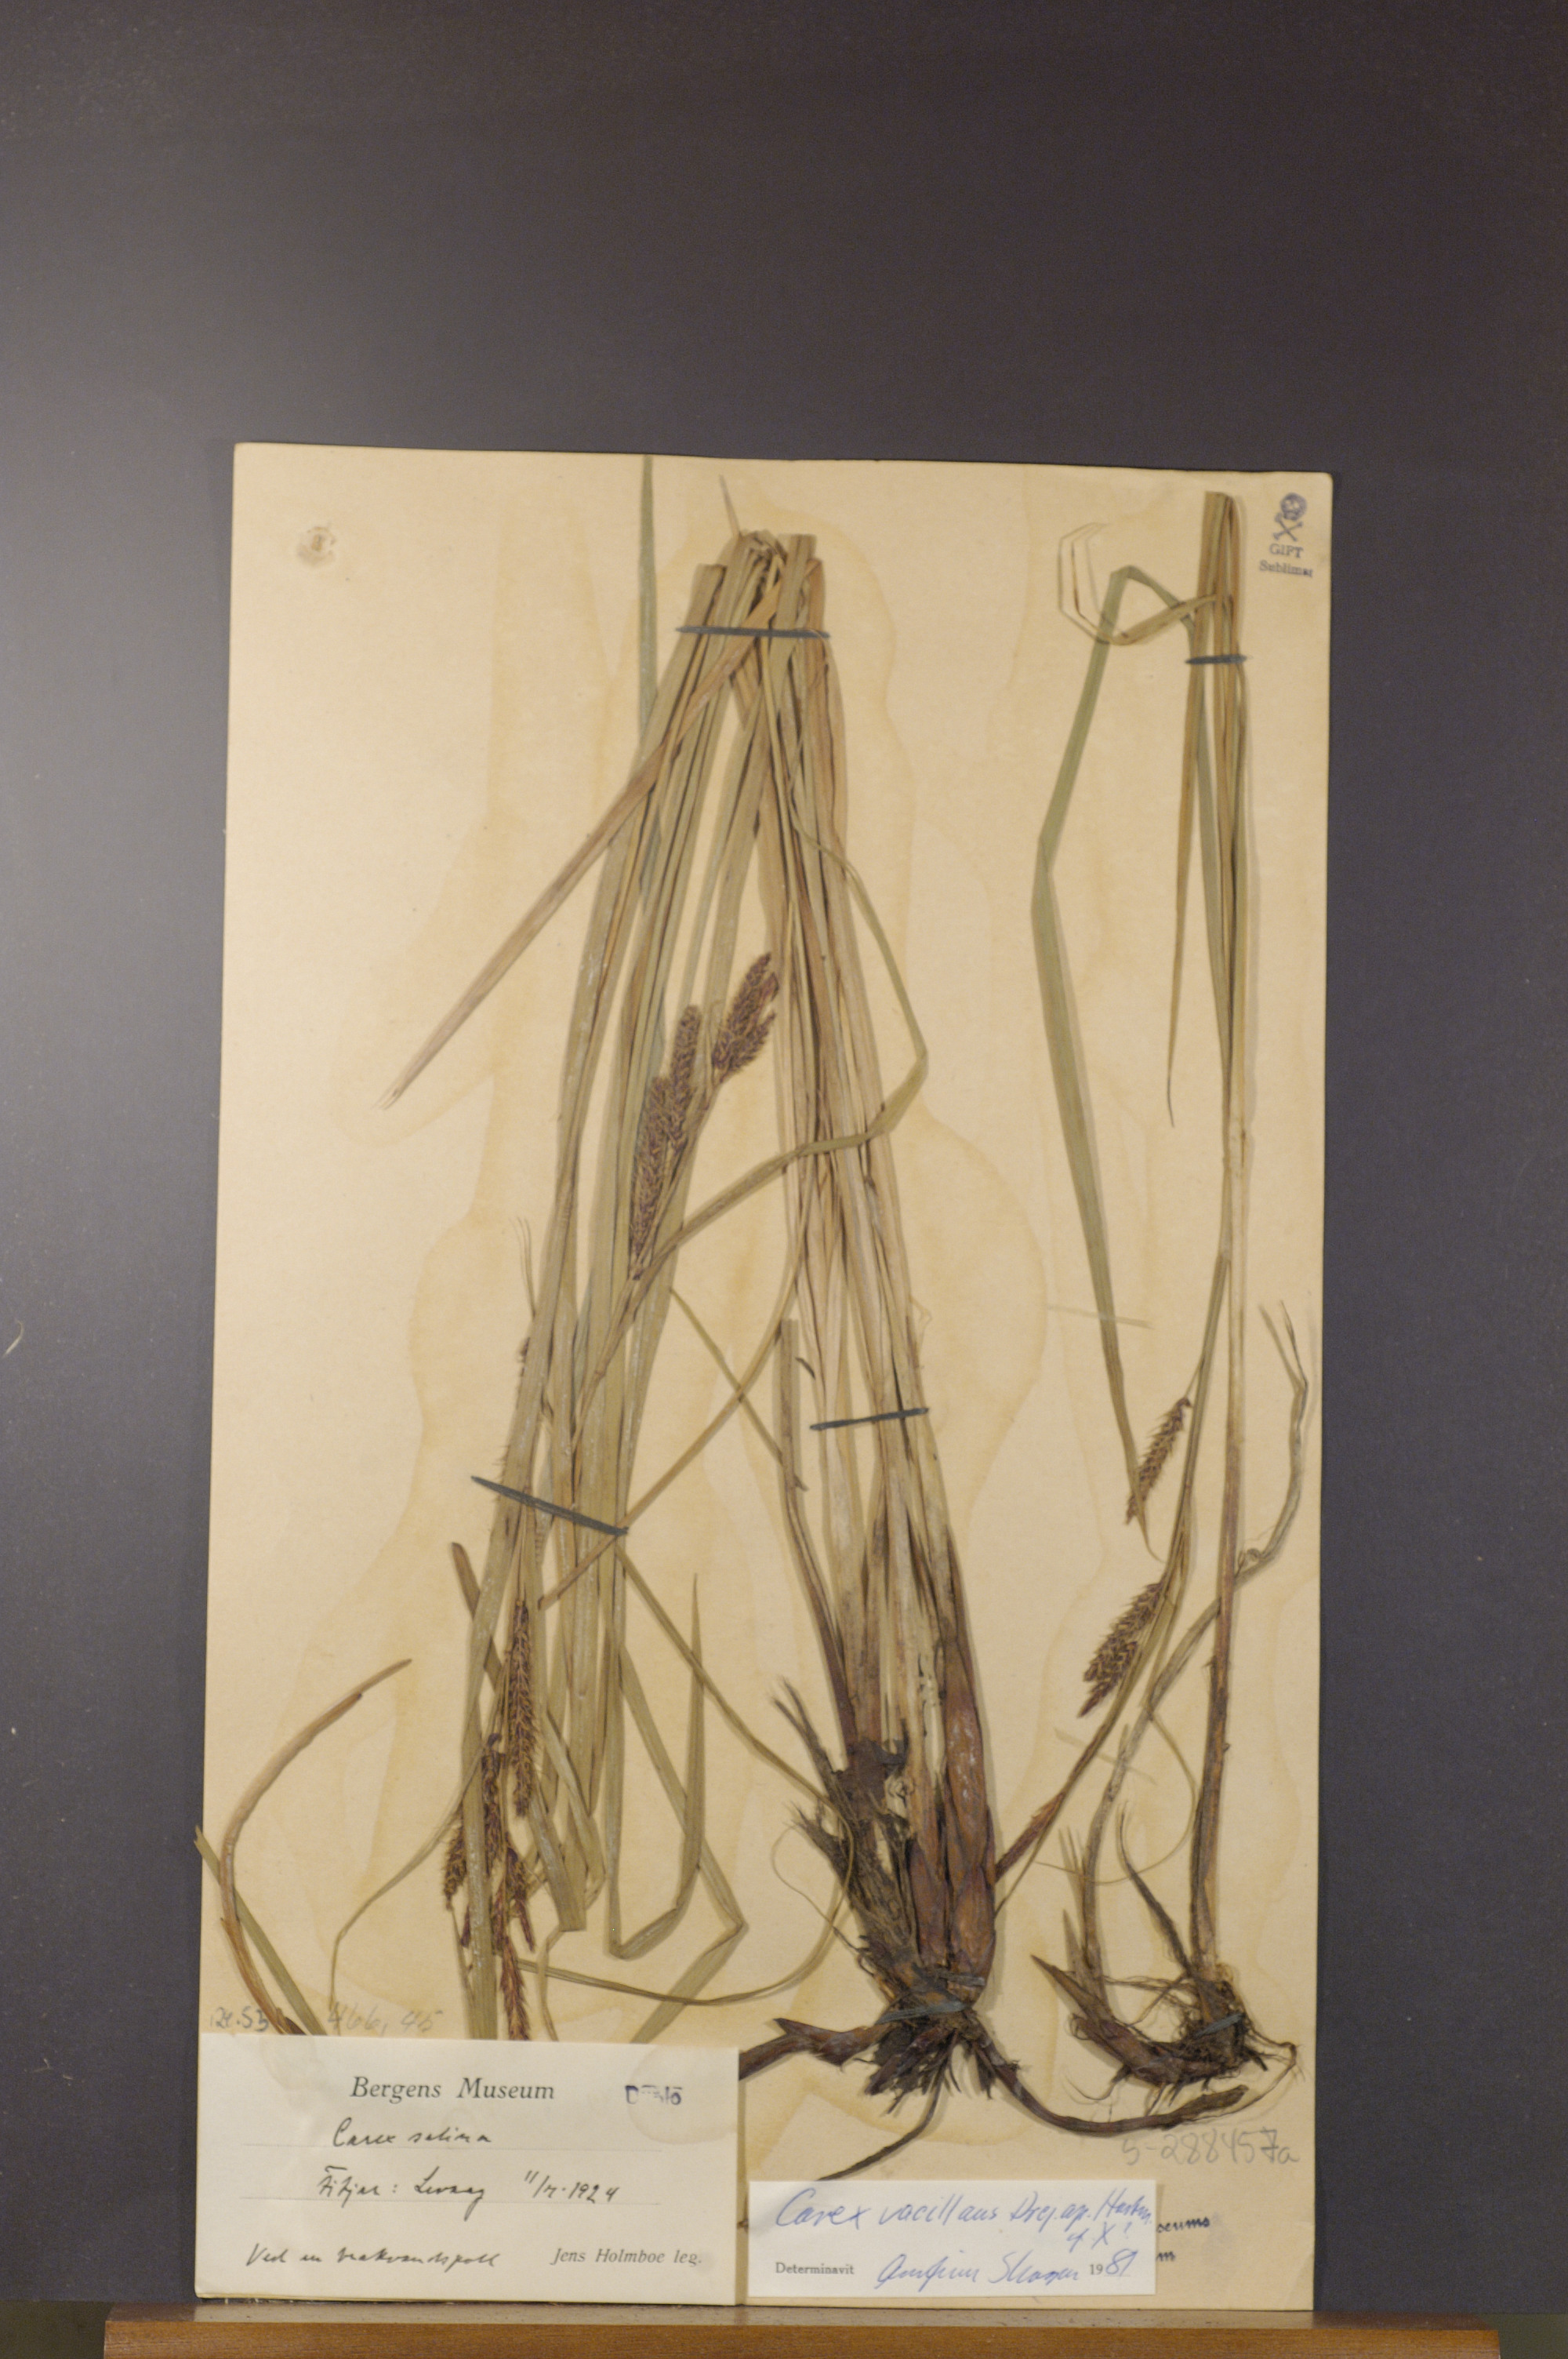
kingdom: Plantae
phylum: Tracheophyta
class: Liliopsida
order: Poales
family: Cyperaceae
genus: Carex
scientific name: Carex vacillans
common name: Sedge
